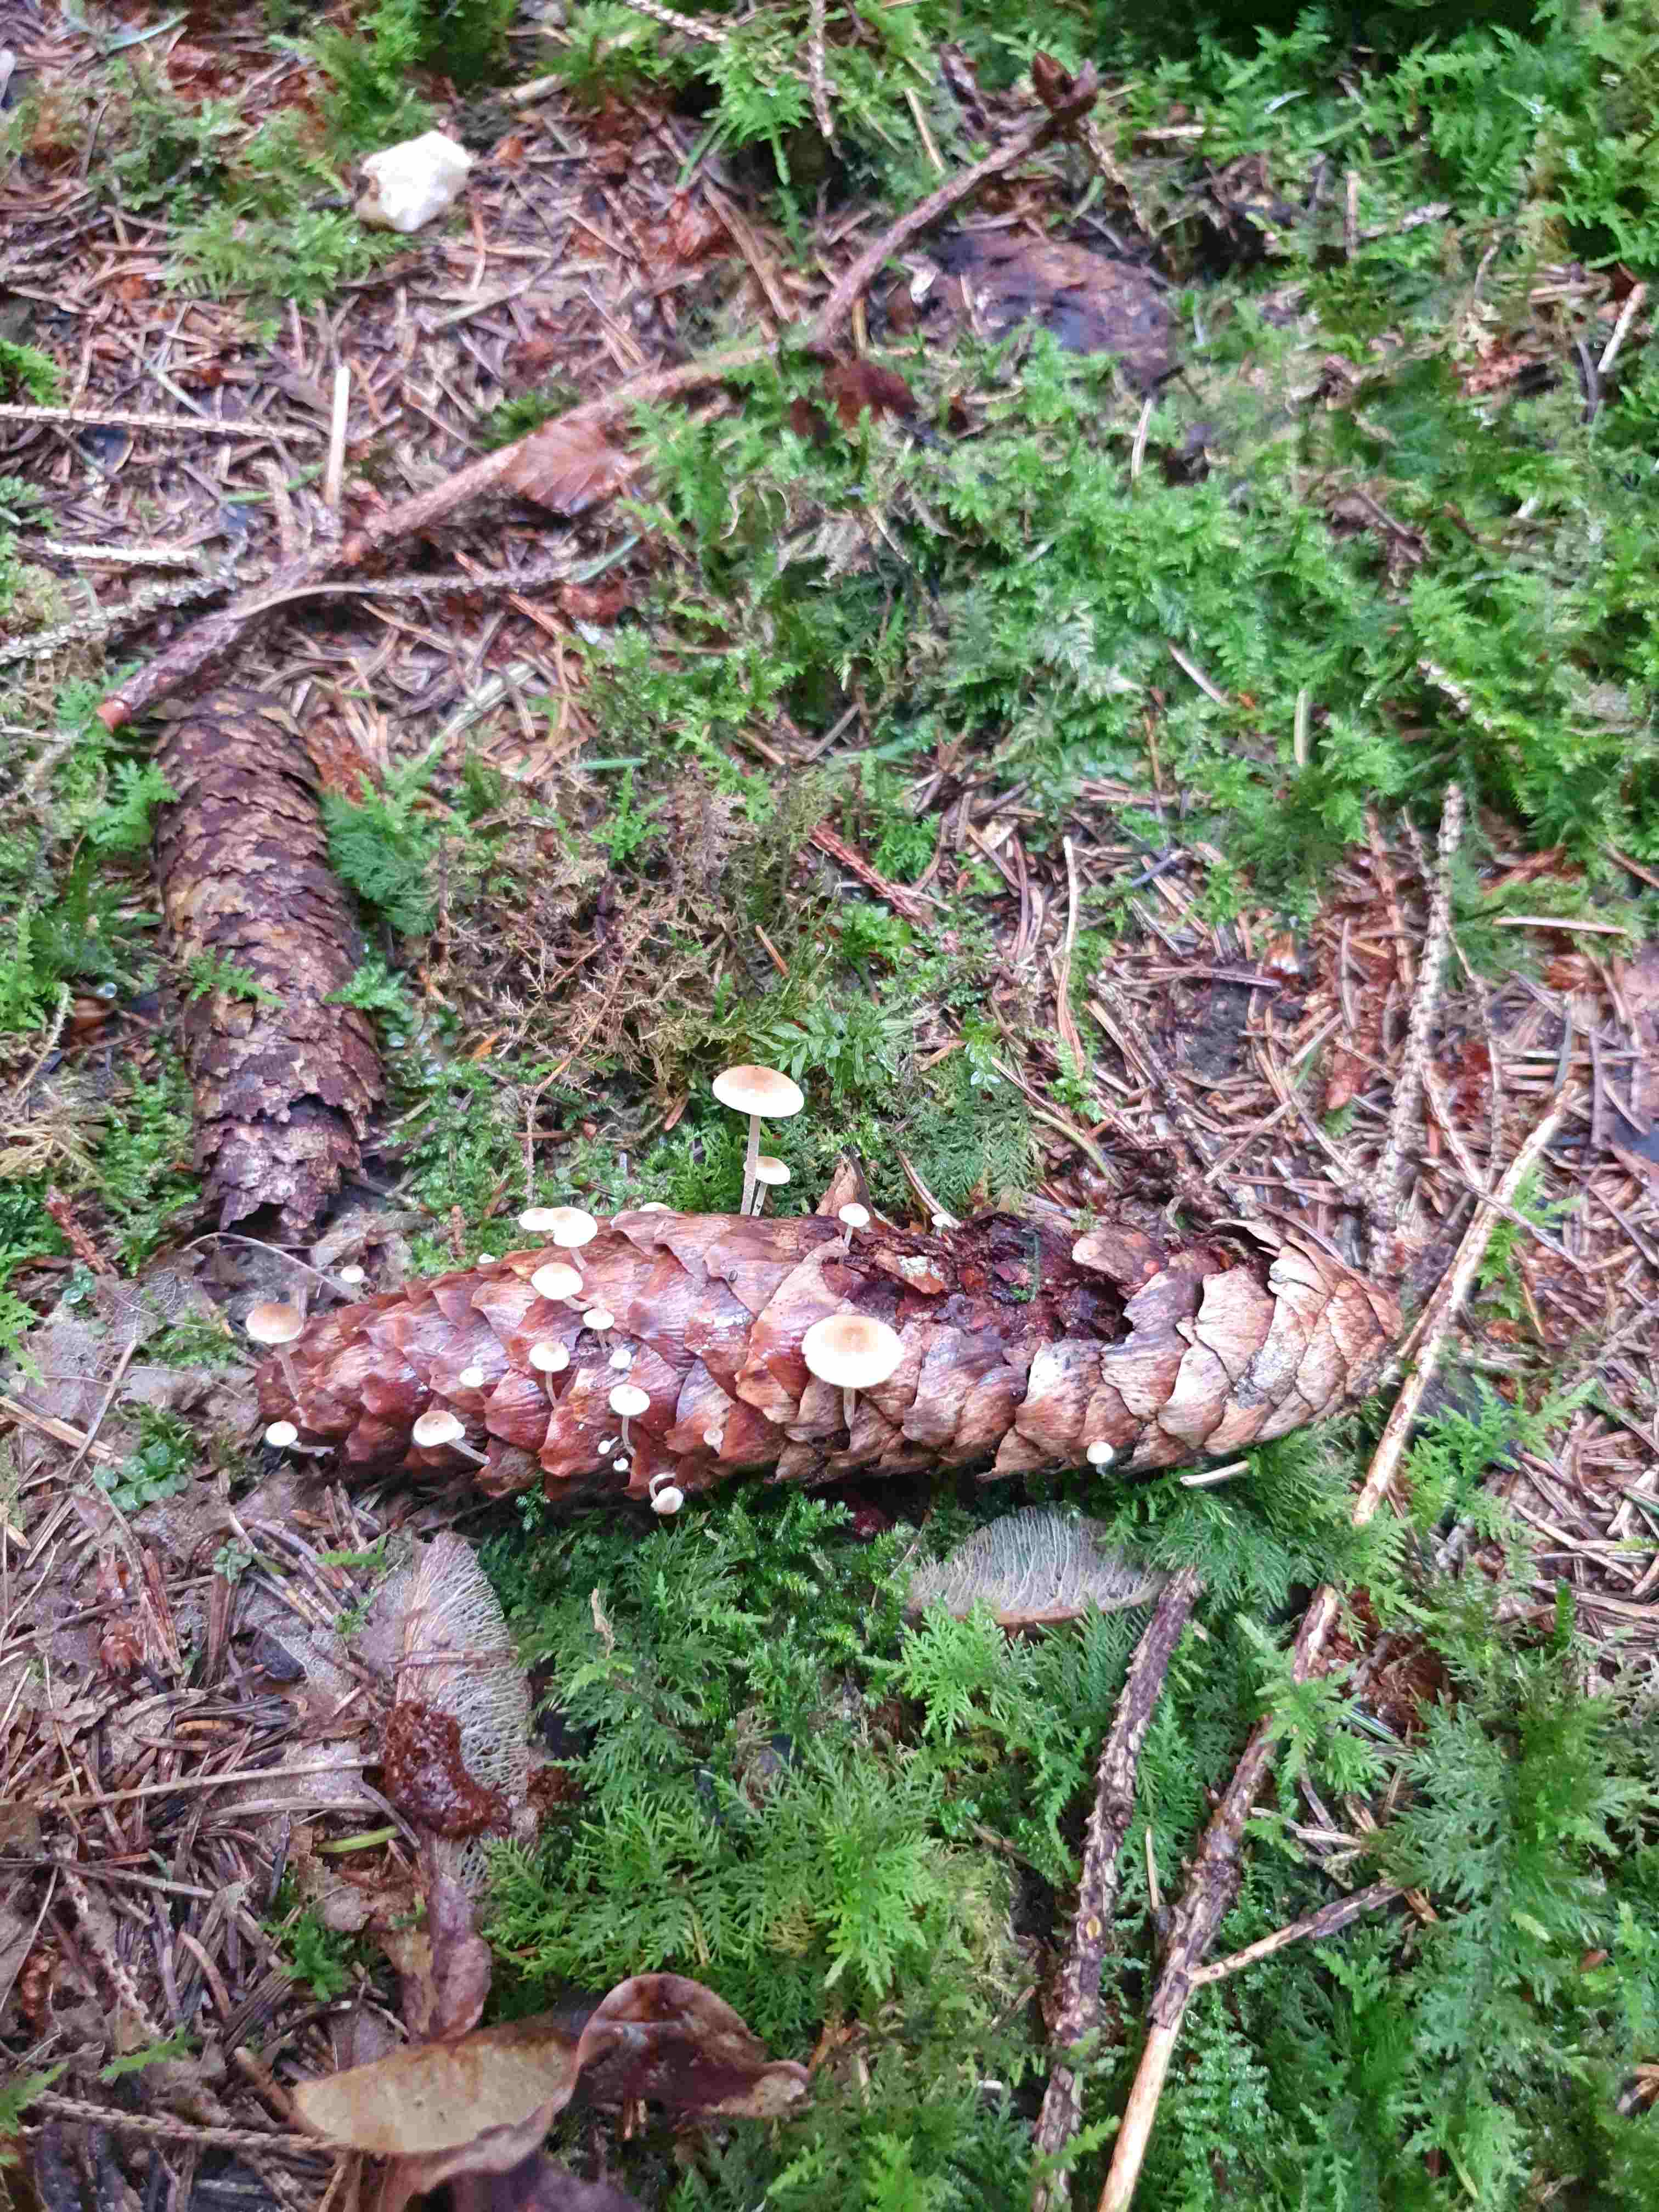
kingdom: Fungi
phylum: Basidiomycota
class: Agaricomycetes
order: Agaricales
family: Marasmiaceae
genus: Baeospora
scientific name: Baeospora myosura
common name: koglebruskhat
